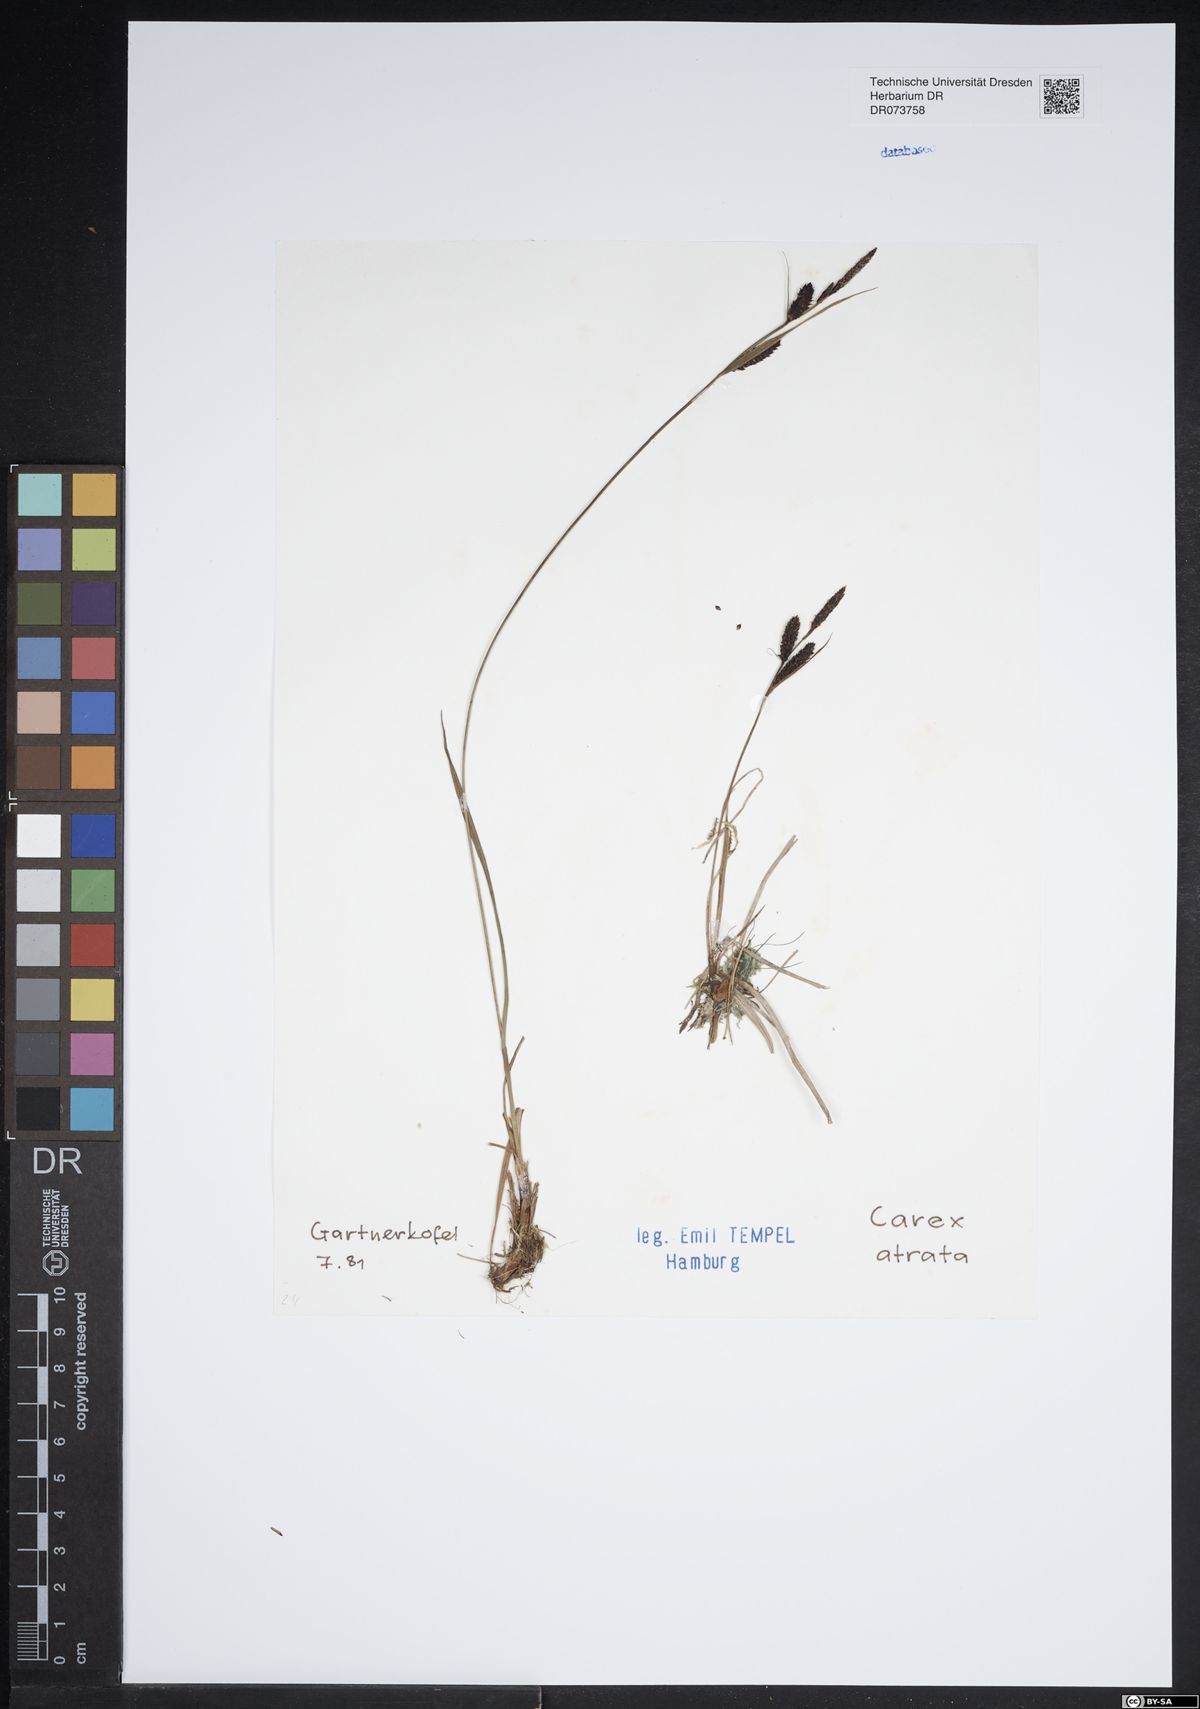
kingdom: Plantae
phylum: Tracheophyta
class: Liliopsida
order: Poales
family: Cyperaceae
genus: Carex
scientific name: Carex atrata
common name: Black alpine sedge
